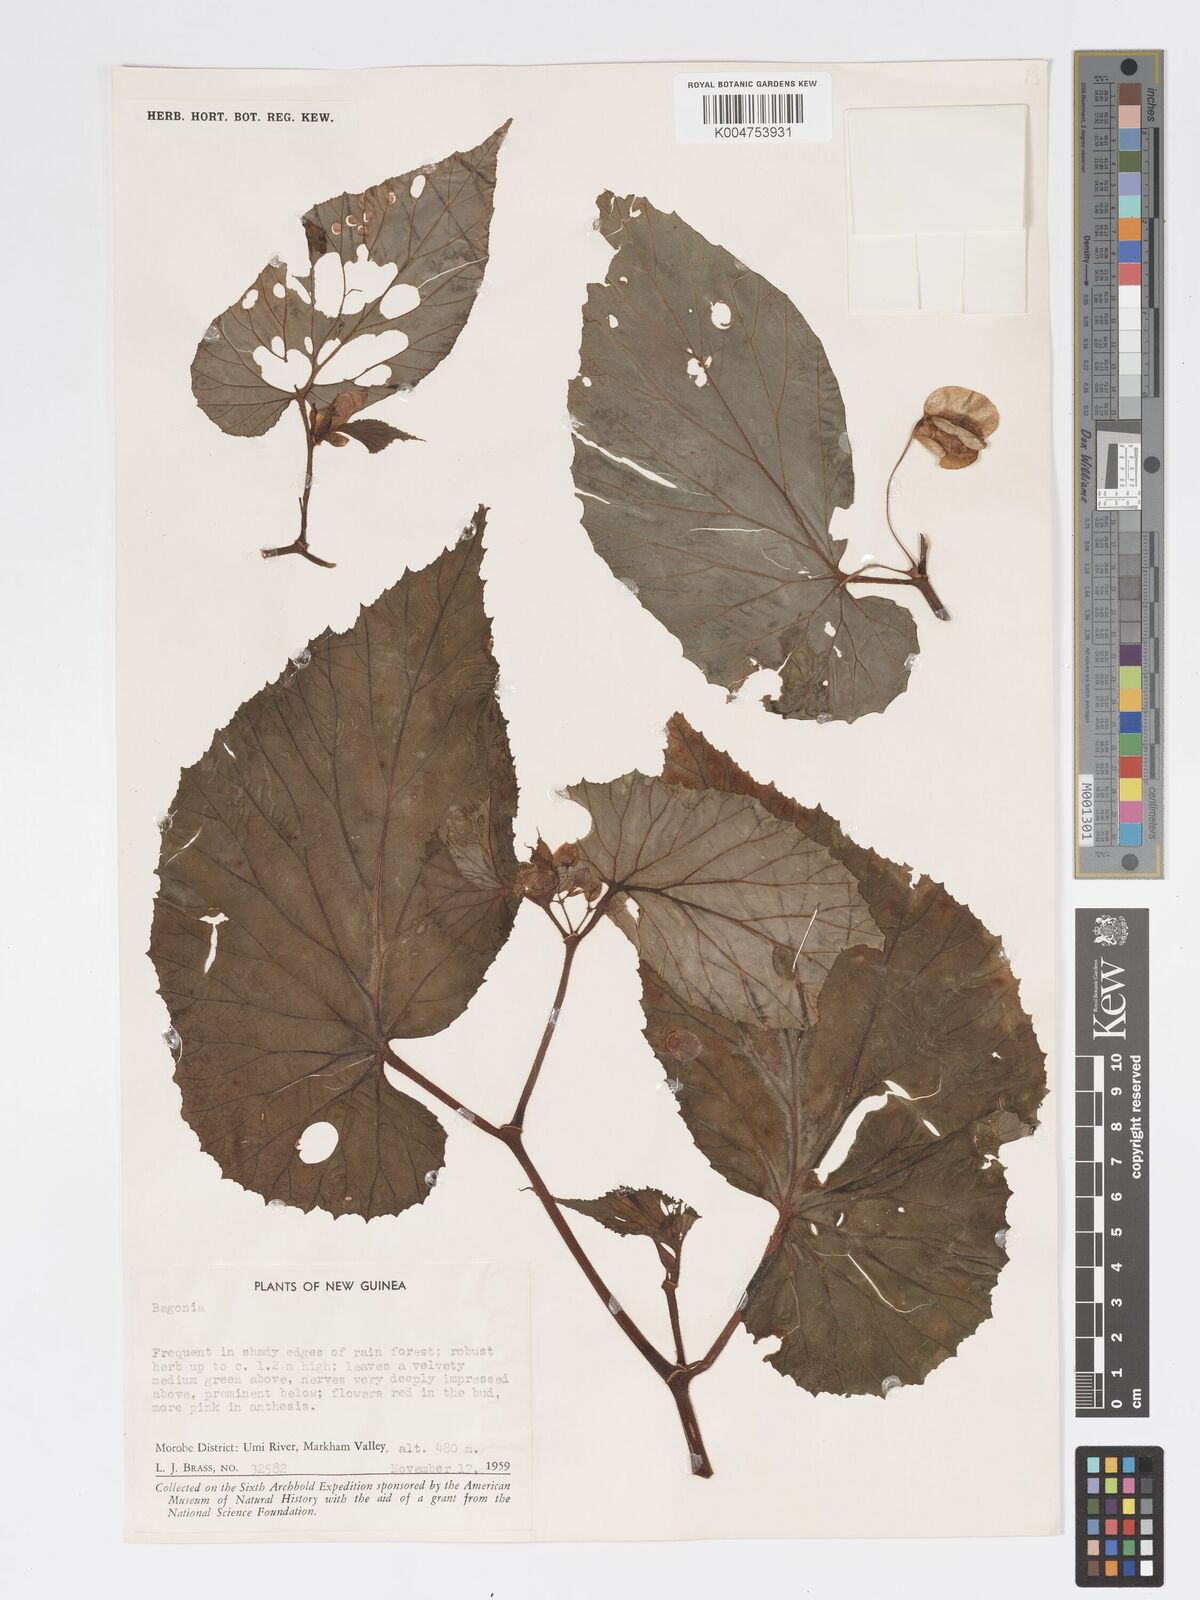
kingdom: Plantae
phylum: Tracheophyta
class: Magnoliopsida
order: Cucurbitales
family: Begoniaceae
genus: Begonia
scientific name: Begonia augustae
